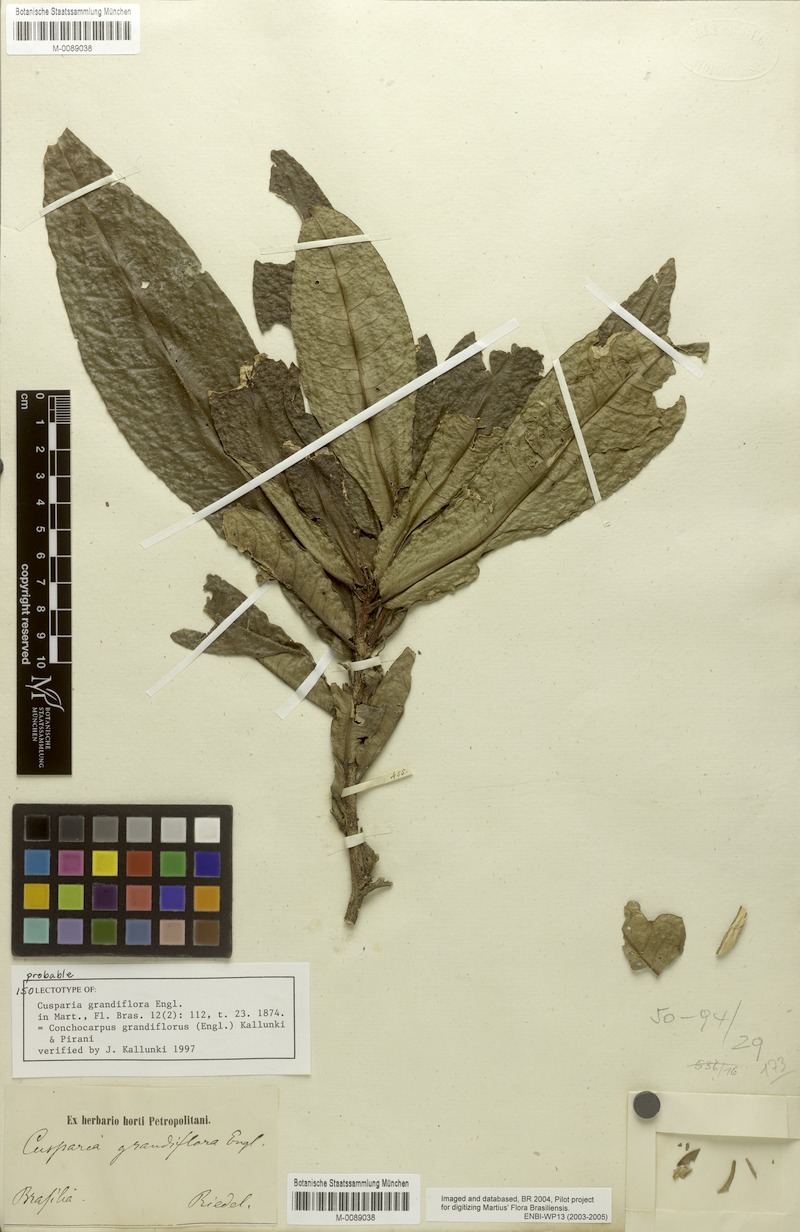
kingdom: Plantae
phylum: Tracheophyta
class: Magnoliopsida
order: Sapindales
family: Rutaceae
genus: Conchocarpus
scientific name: Conchocarpus grandiflorus
